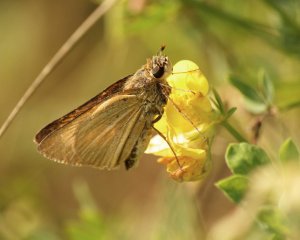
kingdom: Animalia
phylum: Arthropoda
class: Insecta
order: Lepidoptera
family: Hesperiidae
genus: Atrytone
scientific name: Atrytone delaware
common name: Delaware Skipper
